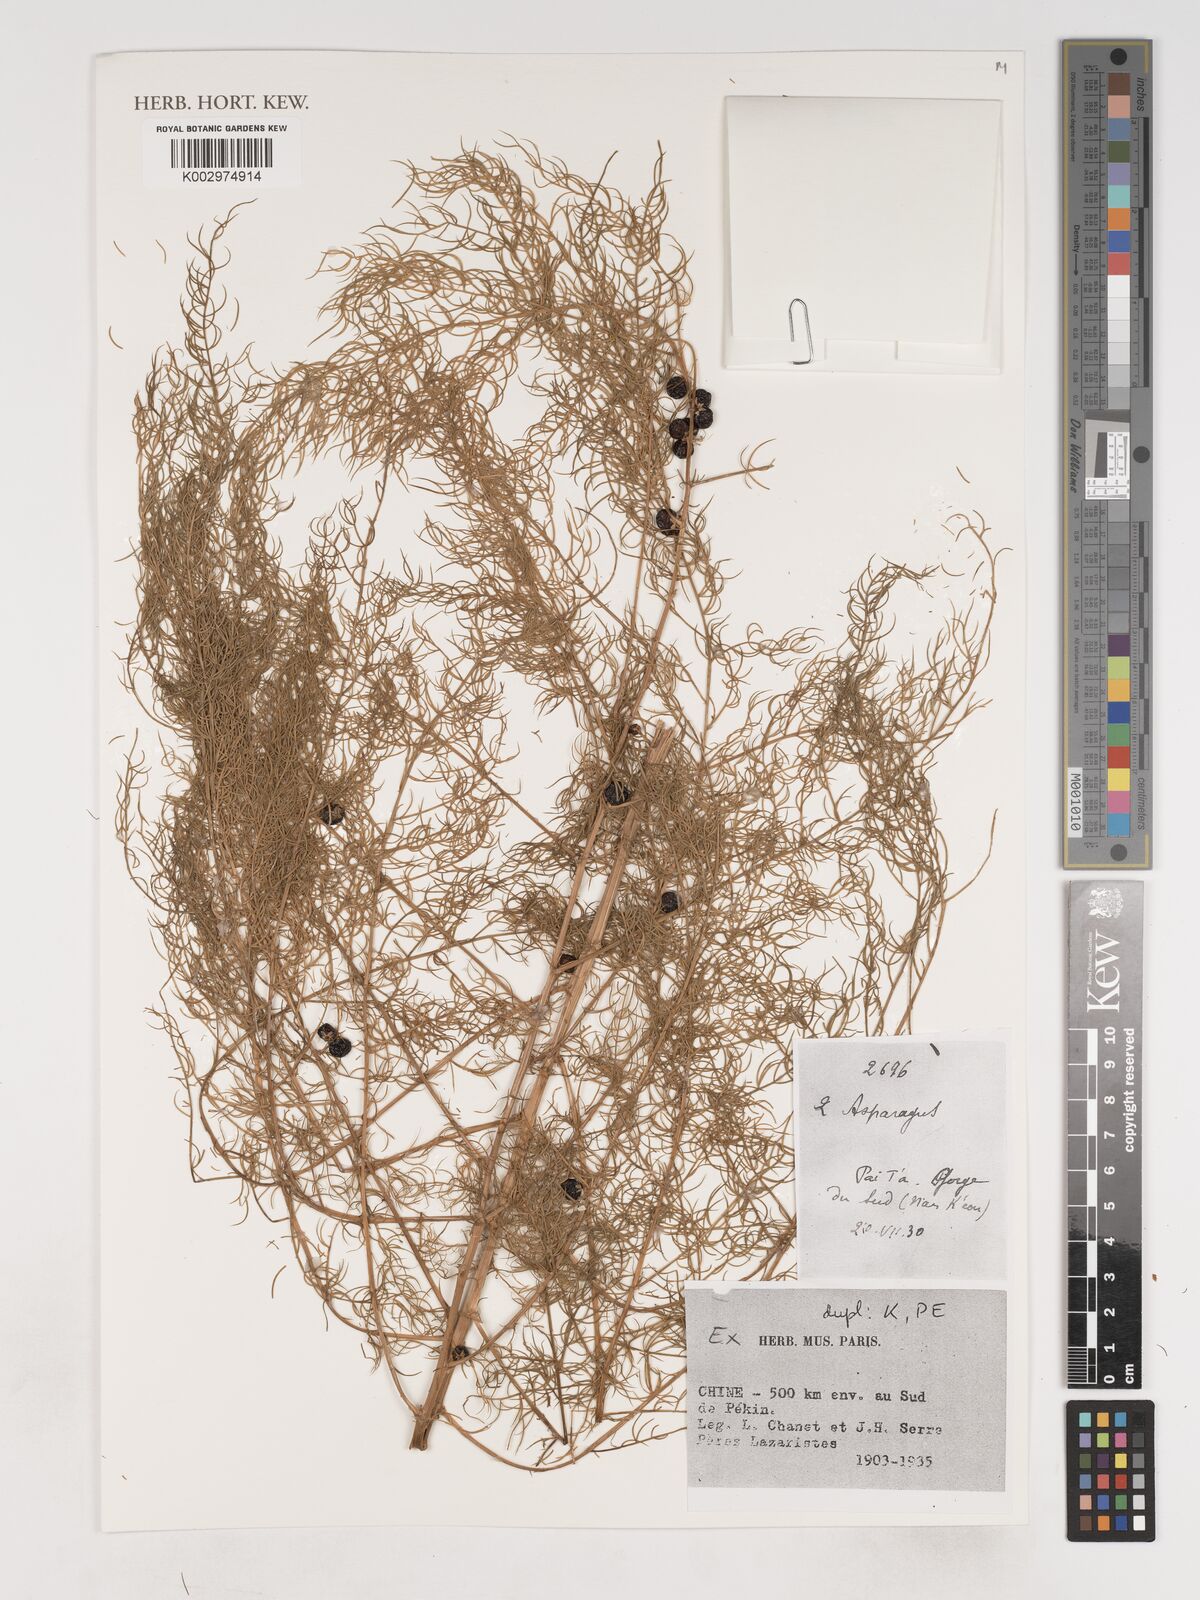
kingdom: Plantae
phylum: Tracheophyta
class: Liliopsida
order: Asparagales
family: Asparagaceae
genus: Asparagus
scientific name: Asparagus
